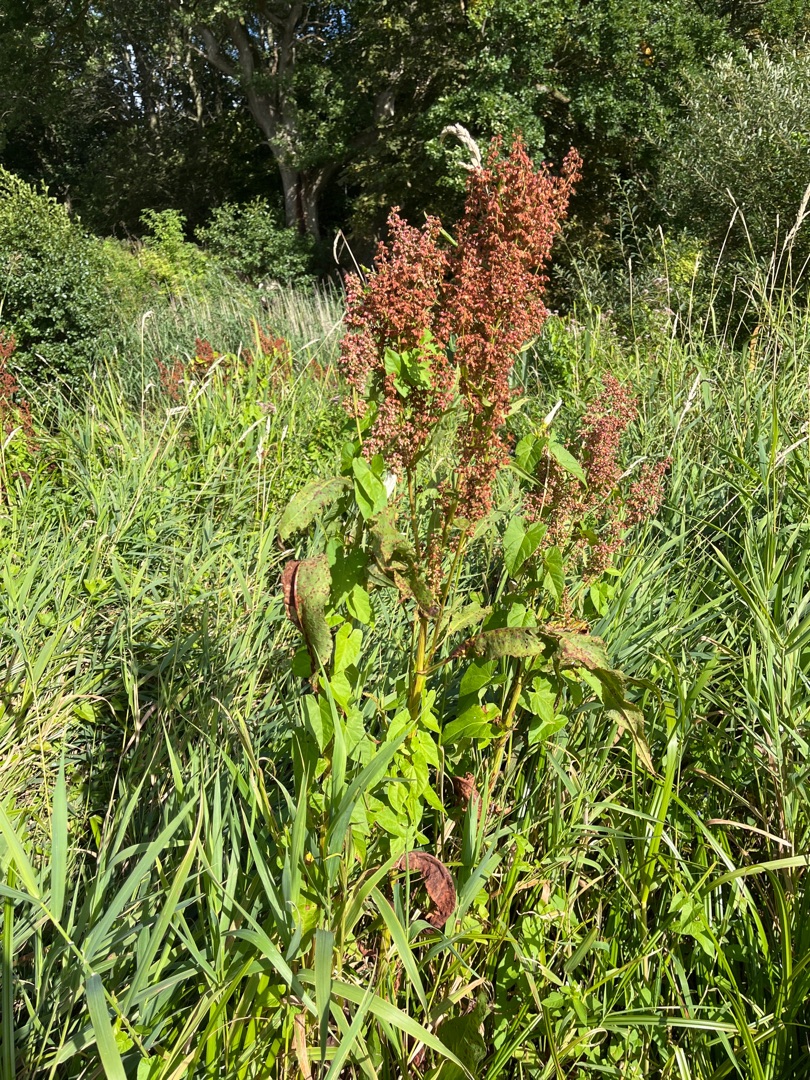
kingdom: Plantae
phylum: Tracheophyta
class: Magnoliopsida
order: Caryophyllales
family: Polygonaceae
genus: Rumex
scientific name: Rumex hydrolapathum
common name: Vand-skræppe
